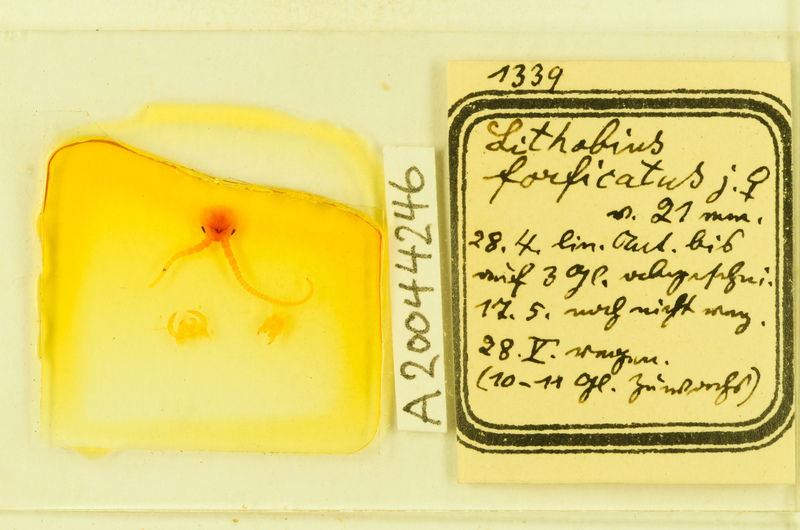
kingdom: Animalia
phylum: Arthropoda
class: Chilopoda
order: Lithobiomorpha
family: Lithobiidae
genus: Lithobius
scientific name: Lithobius forficatus
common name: Centipede
